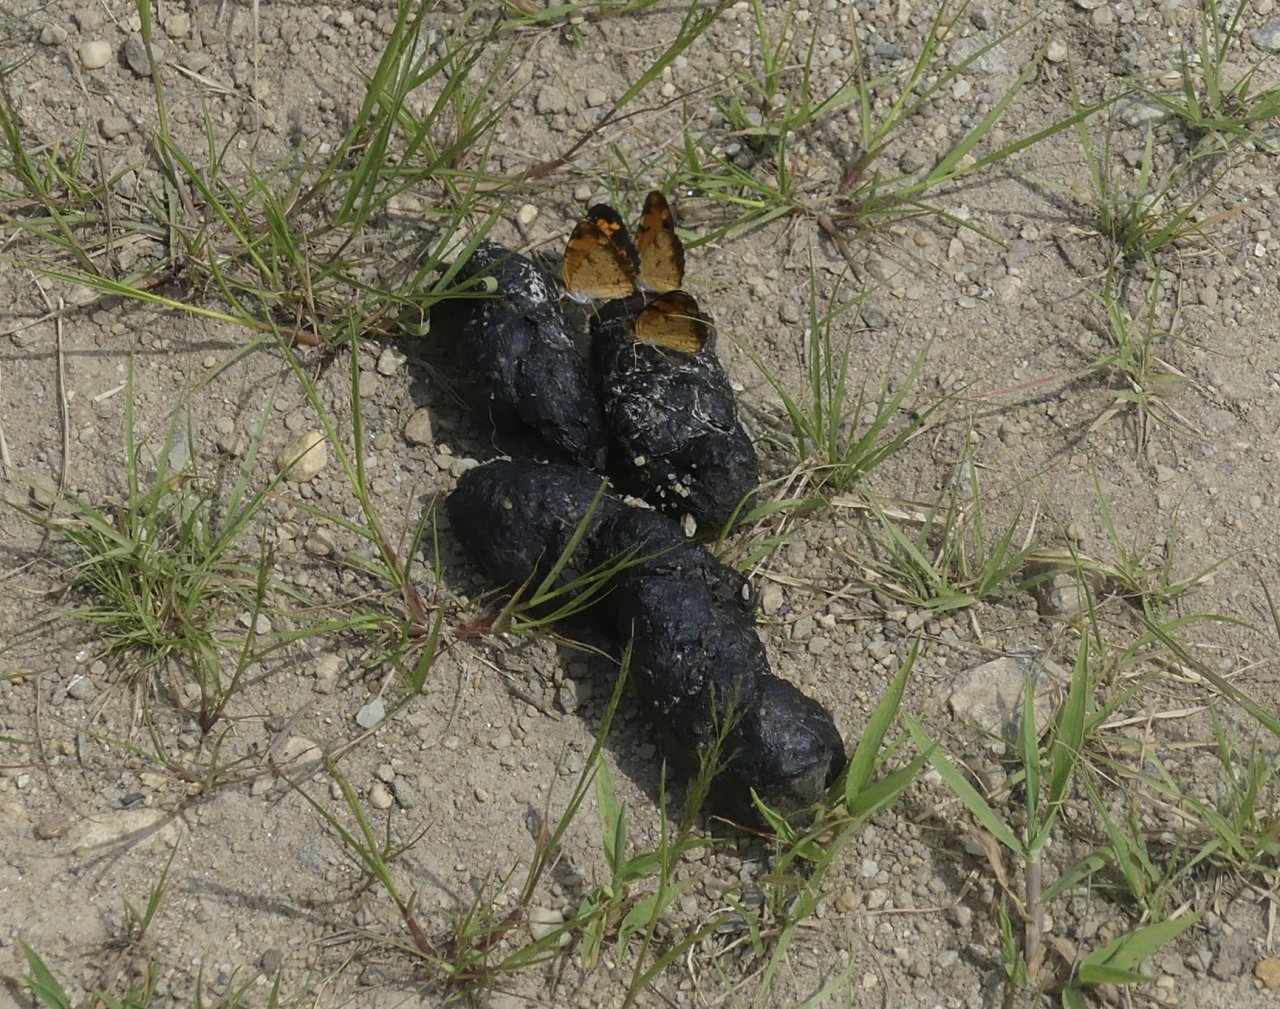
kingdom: Animalia
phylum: Arthropoda
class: Insecta
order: Lepidoptera
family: Nymphalidae
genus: Phyciodes
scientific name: Phyciodes tharos
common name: Pearl Crescent
